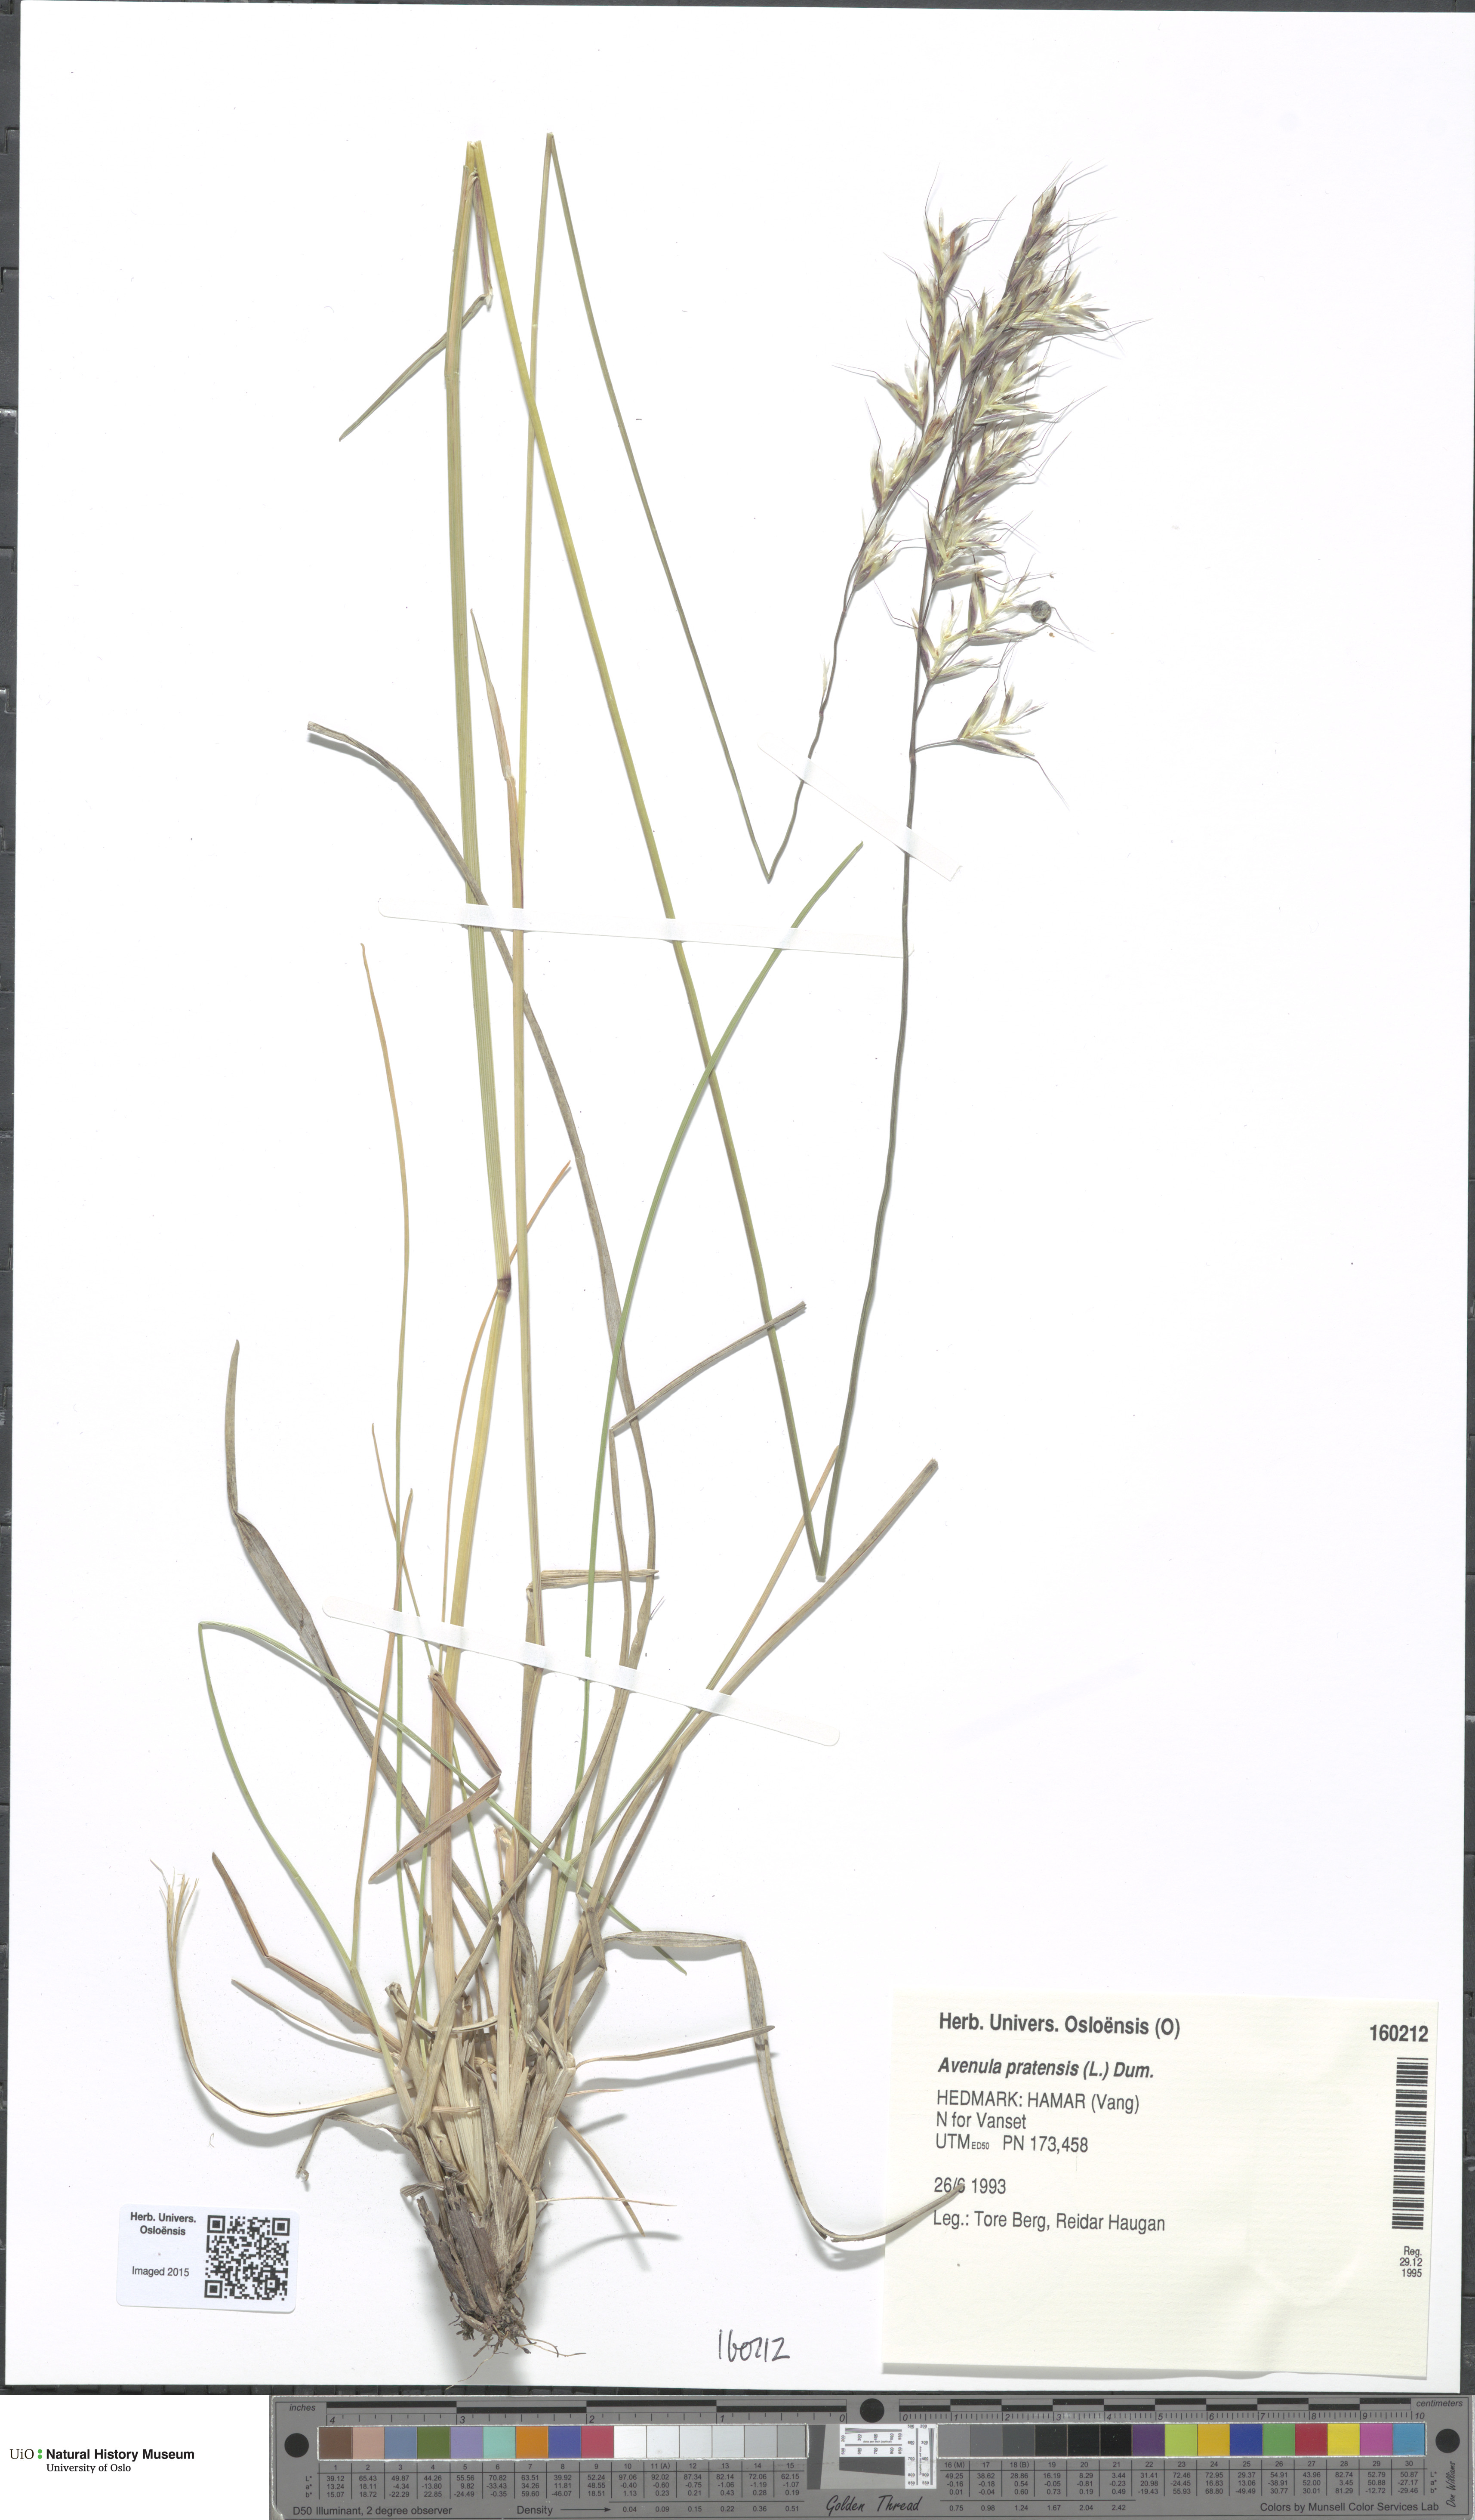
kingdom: Plantae
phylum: Tracheophyta
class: Liliopsida
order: Poales
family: Poaceae
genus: Helictochloa
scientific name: Helictochloa pratensis
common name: Meadow oat grass
